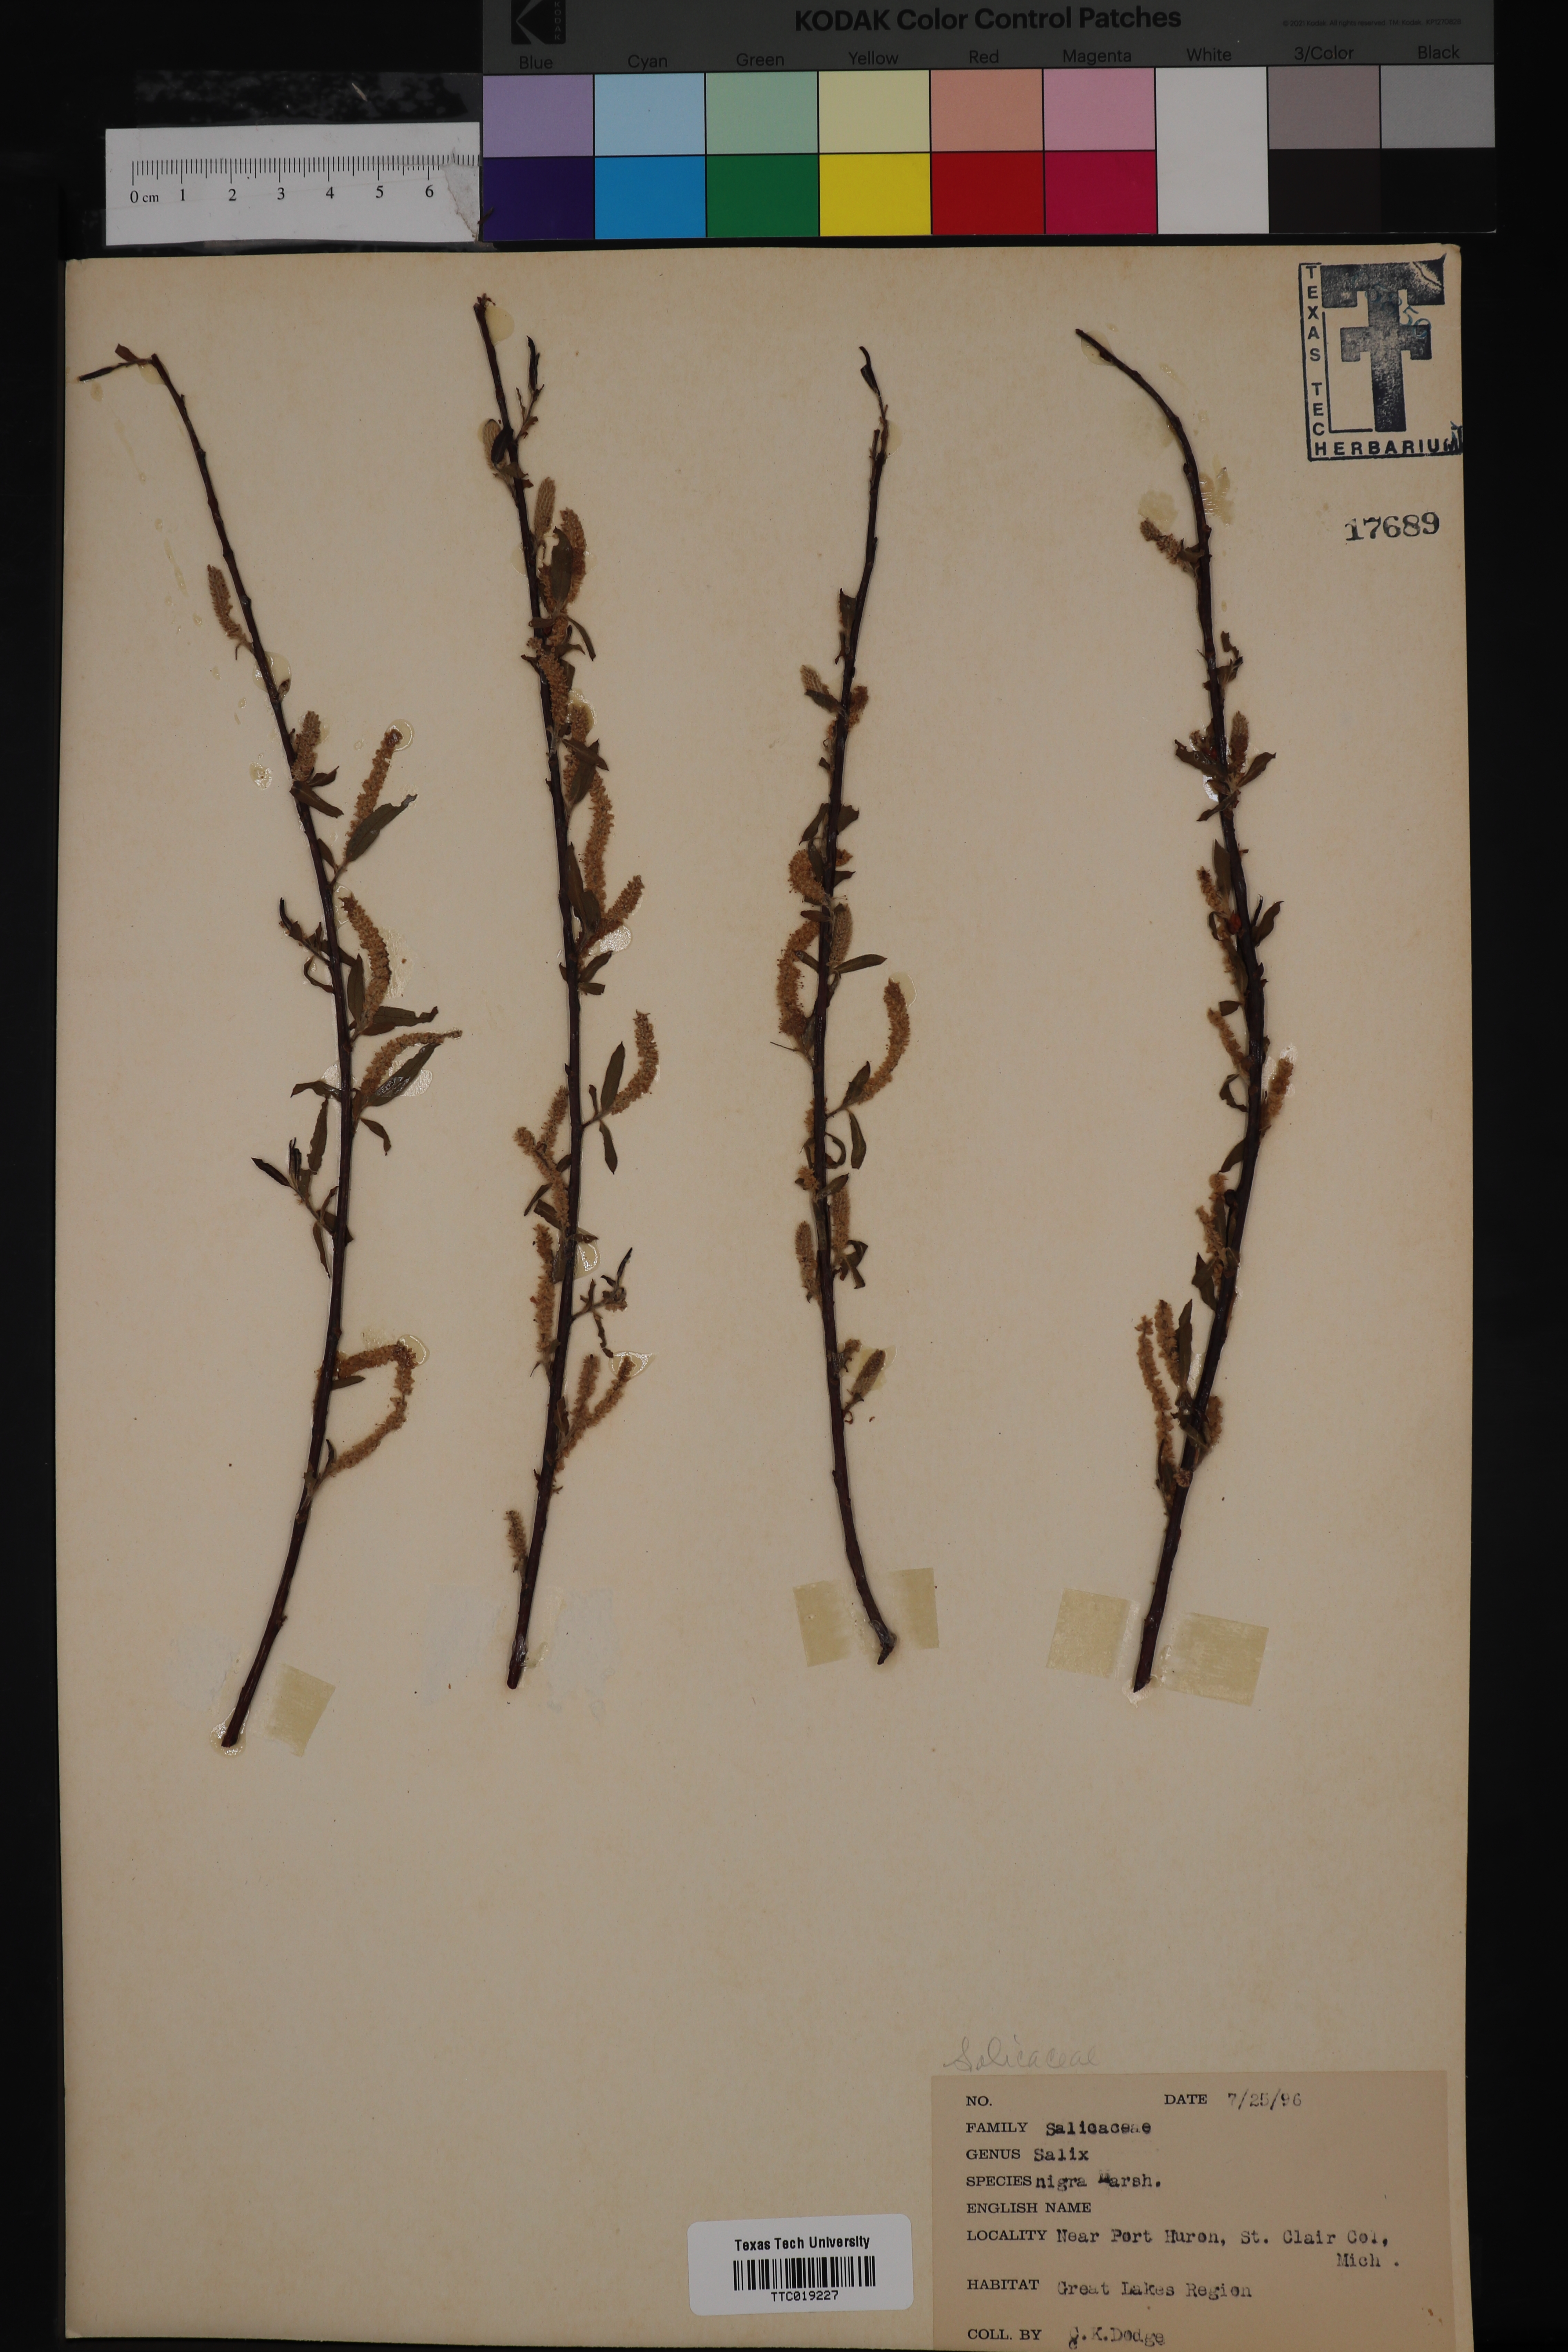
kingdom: Plantae
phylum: Tracheophyta
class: Magnoliopsida
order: Malpighiales
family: Salicaceae
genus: Salix
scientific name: Salix nigra
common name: Black willow
